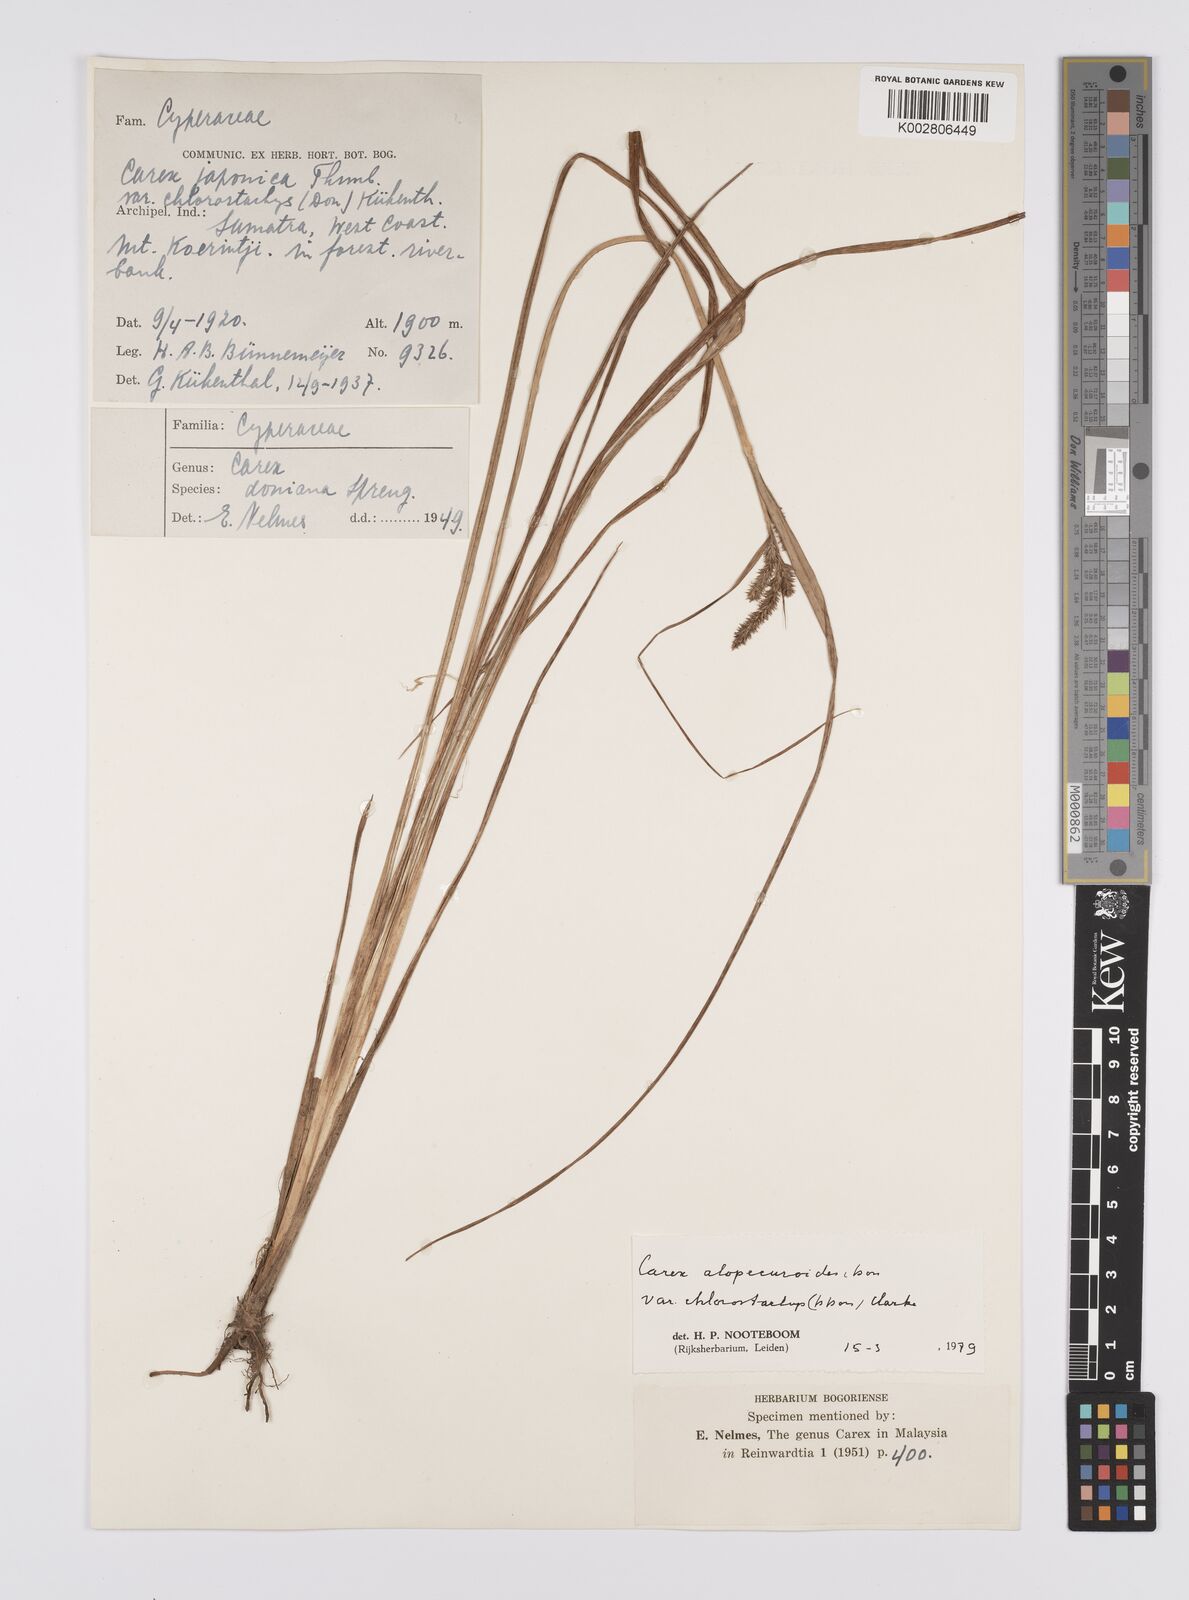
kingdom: Plantae
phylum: Tracheophyta
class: Liliopsida
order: Poales
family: Cyperaceae
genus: Carex
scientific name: Carex alopecuroides
